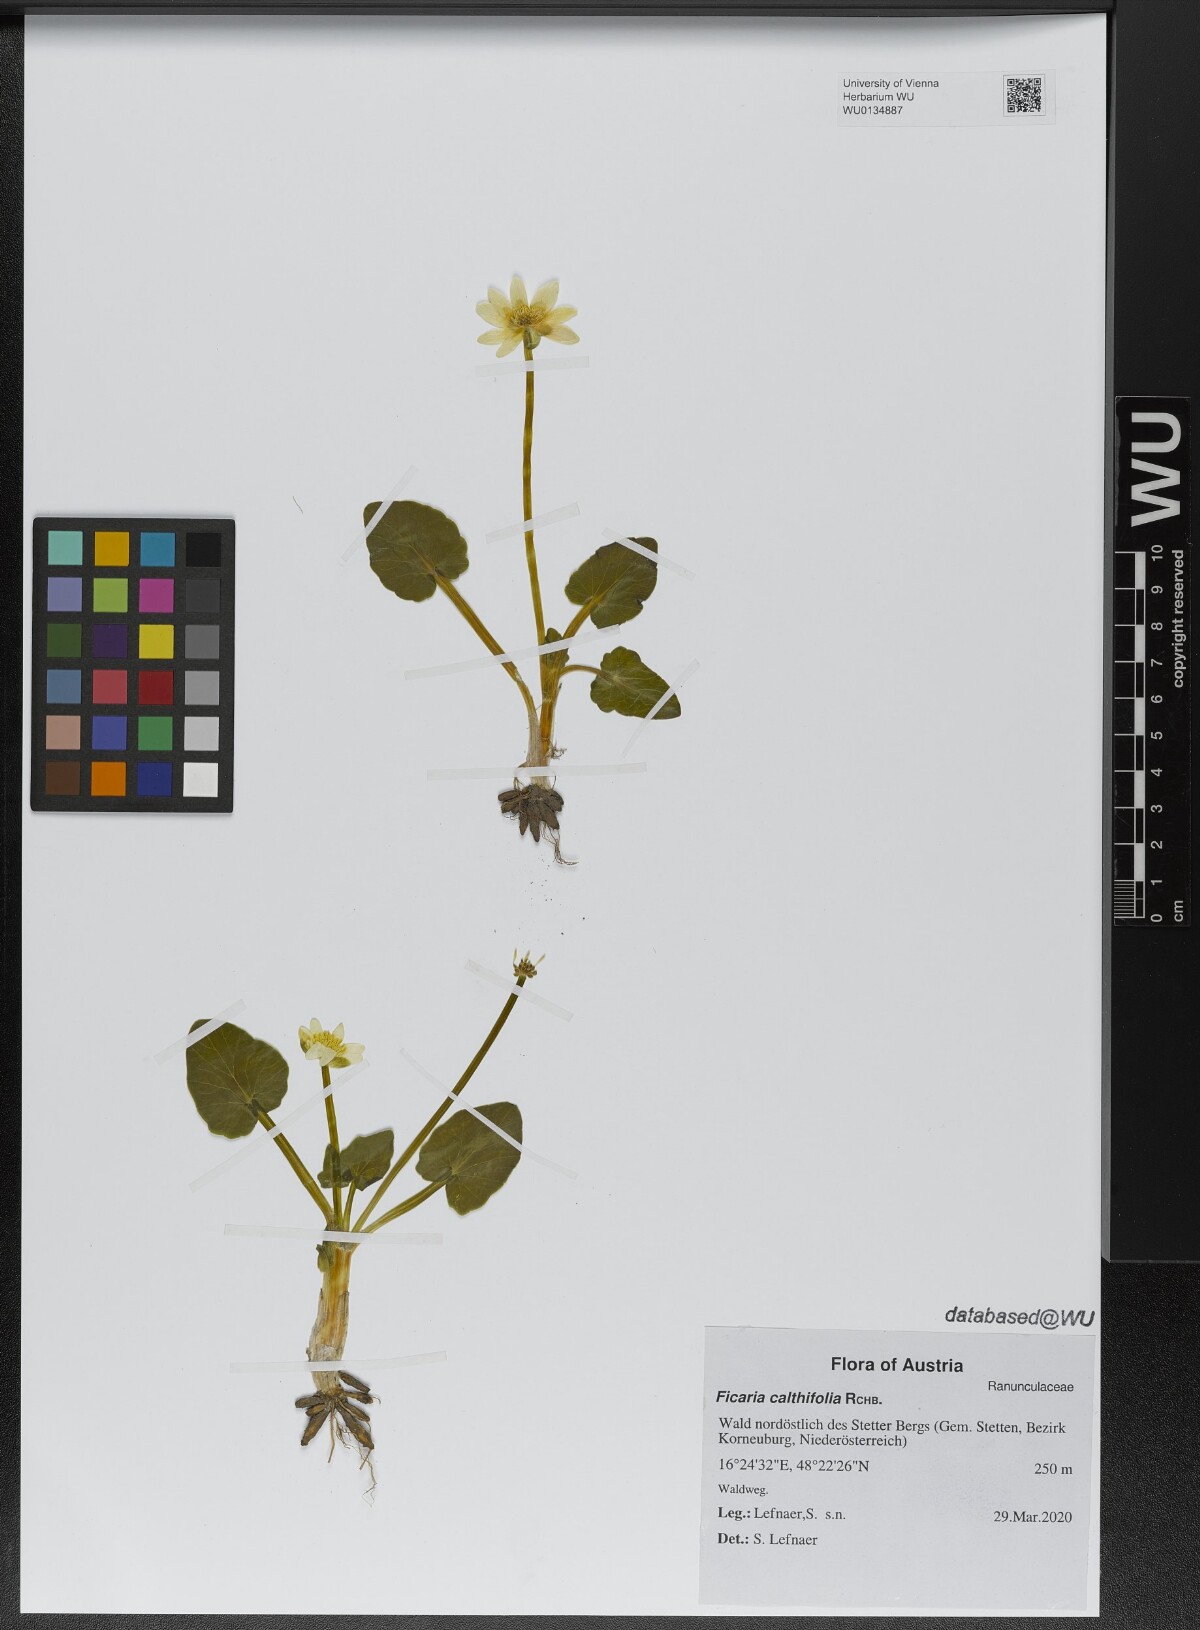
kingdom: Plantae
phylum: Tracheophyta
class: Magnoliopsida
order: Ranunculales
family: Ranunculaceae
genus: Ficaria
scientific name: Ficaria calthifolia
